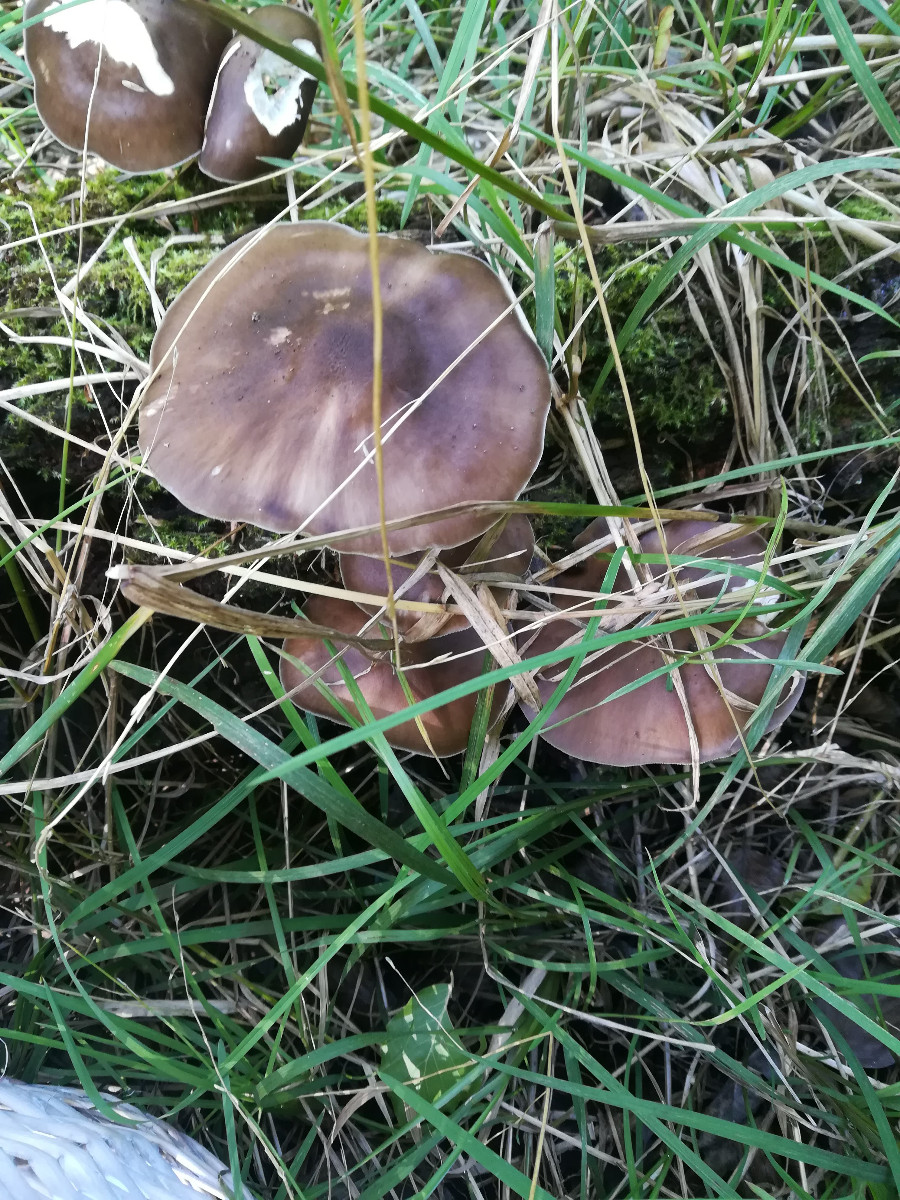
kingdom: Fungi
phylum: Basidiomycota
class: Agaricomycetes
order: Agaricales
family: Pluteaceae
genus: Pluteus
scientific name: Pluteus cervinus
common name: sodfarvet skærmhat
